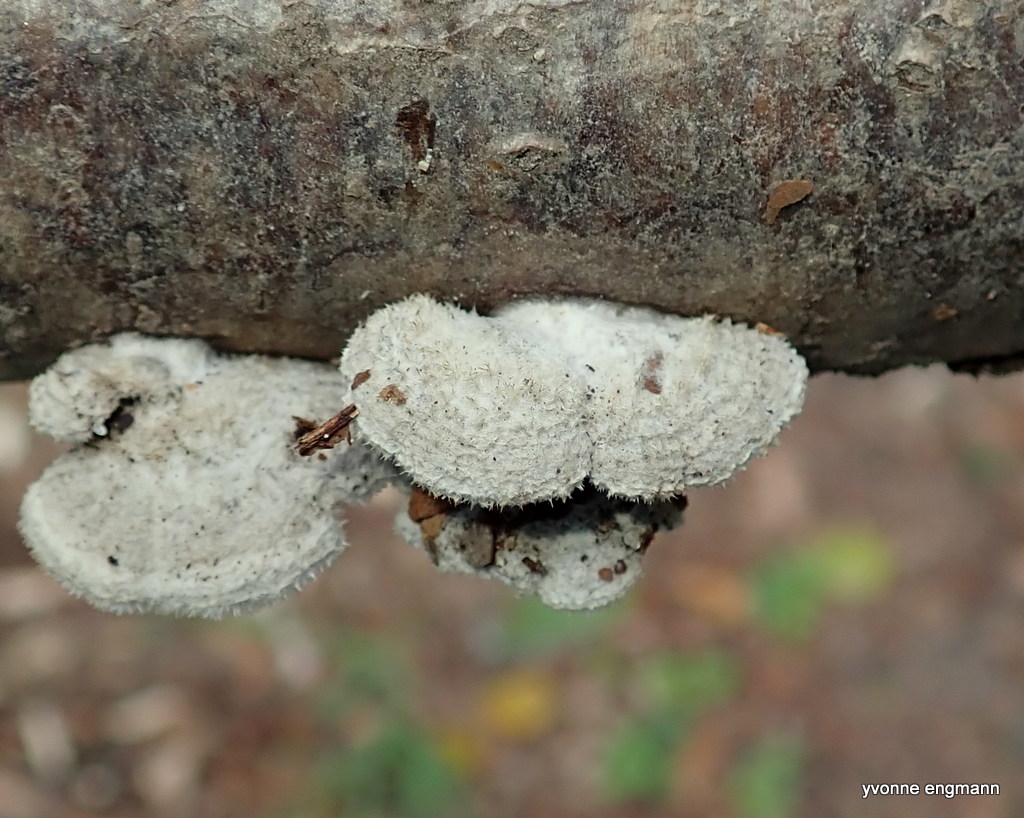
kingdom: Fungi
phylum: Basidiomycota
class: Agaricomycetes
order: Agaricales
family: Schizophyllaceae
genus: Schizophyllum
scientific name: Schizophyllum commune
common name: kløvblad
